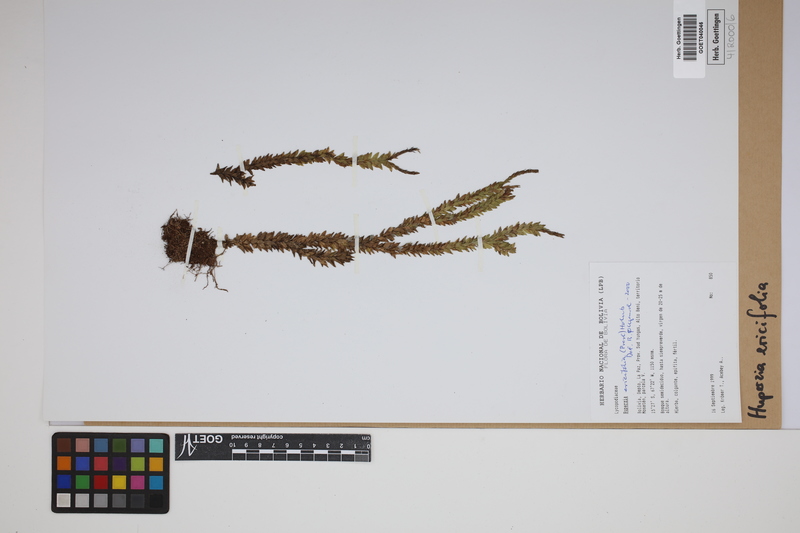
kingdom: Plantae
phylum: Tracheophyta
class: Lycopodiopsida
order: Lycopodiales
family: Lycopodiaceae
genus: Phlegmariurus
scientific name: Phlegmariurus ericifolius
